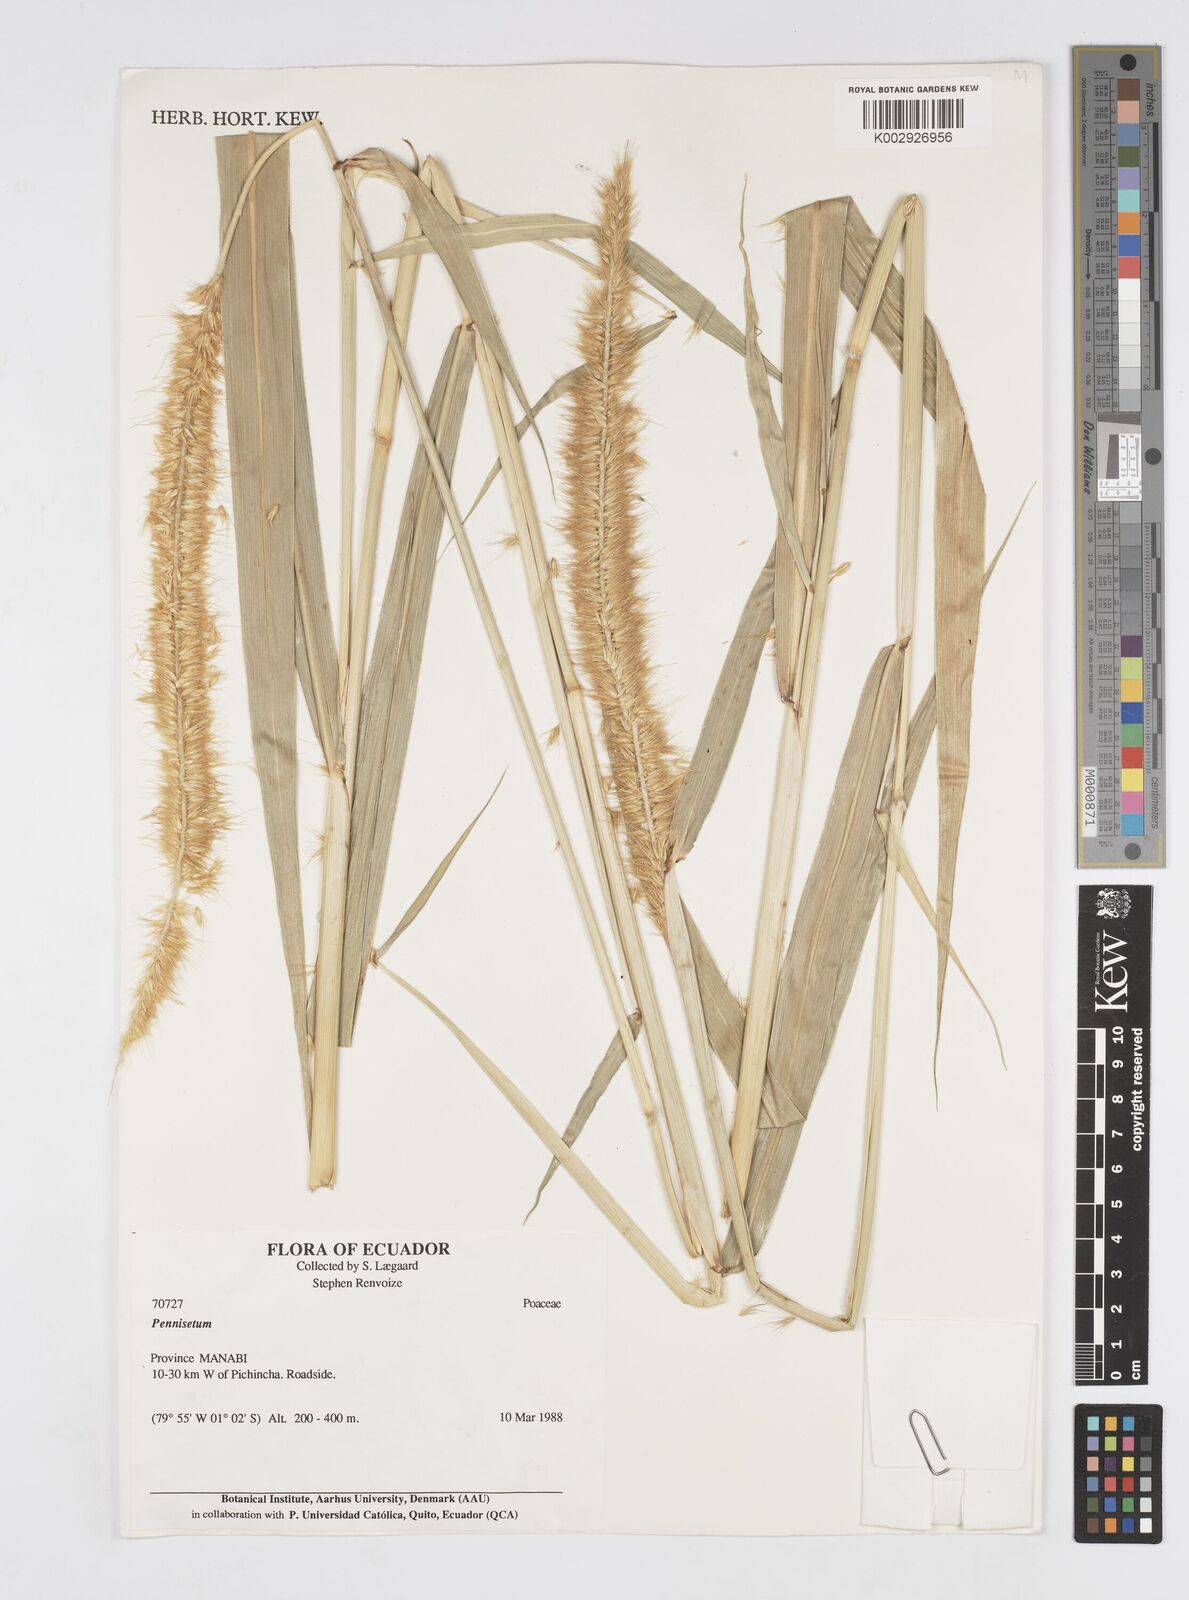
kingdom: Plantae
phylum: Tracheophyta
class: Liliopsida
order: Poales
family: Poaceae
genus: Cenchrus
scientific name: Cenchrus purpureus
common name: Elephant grass
